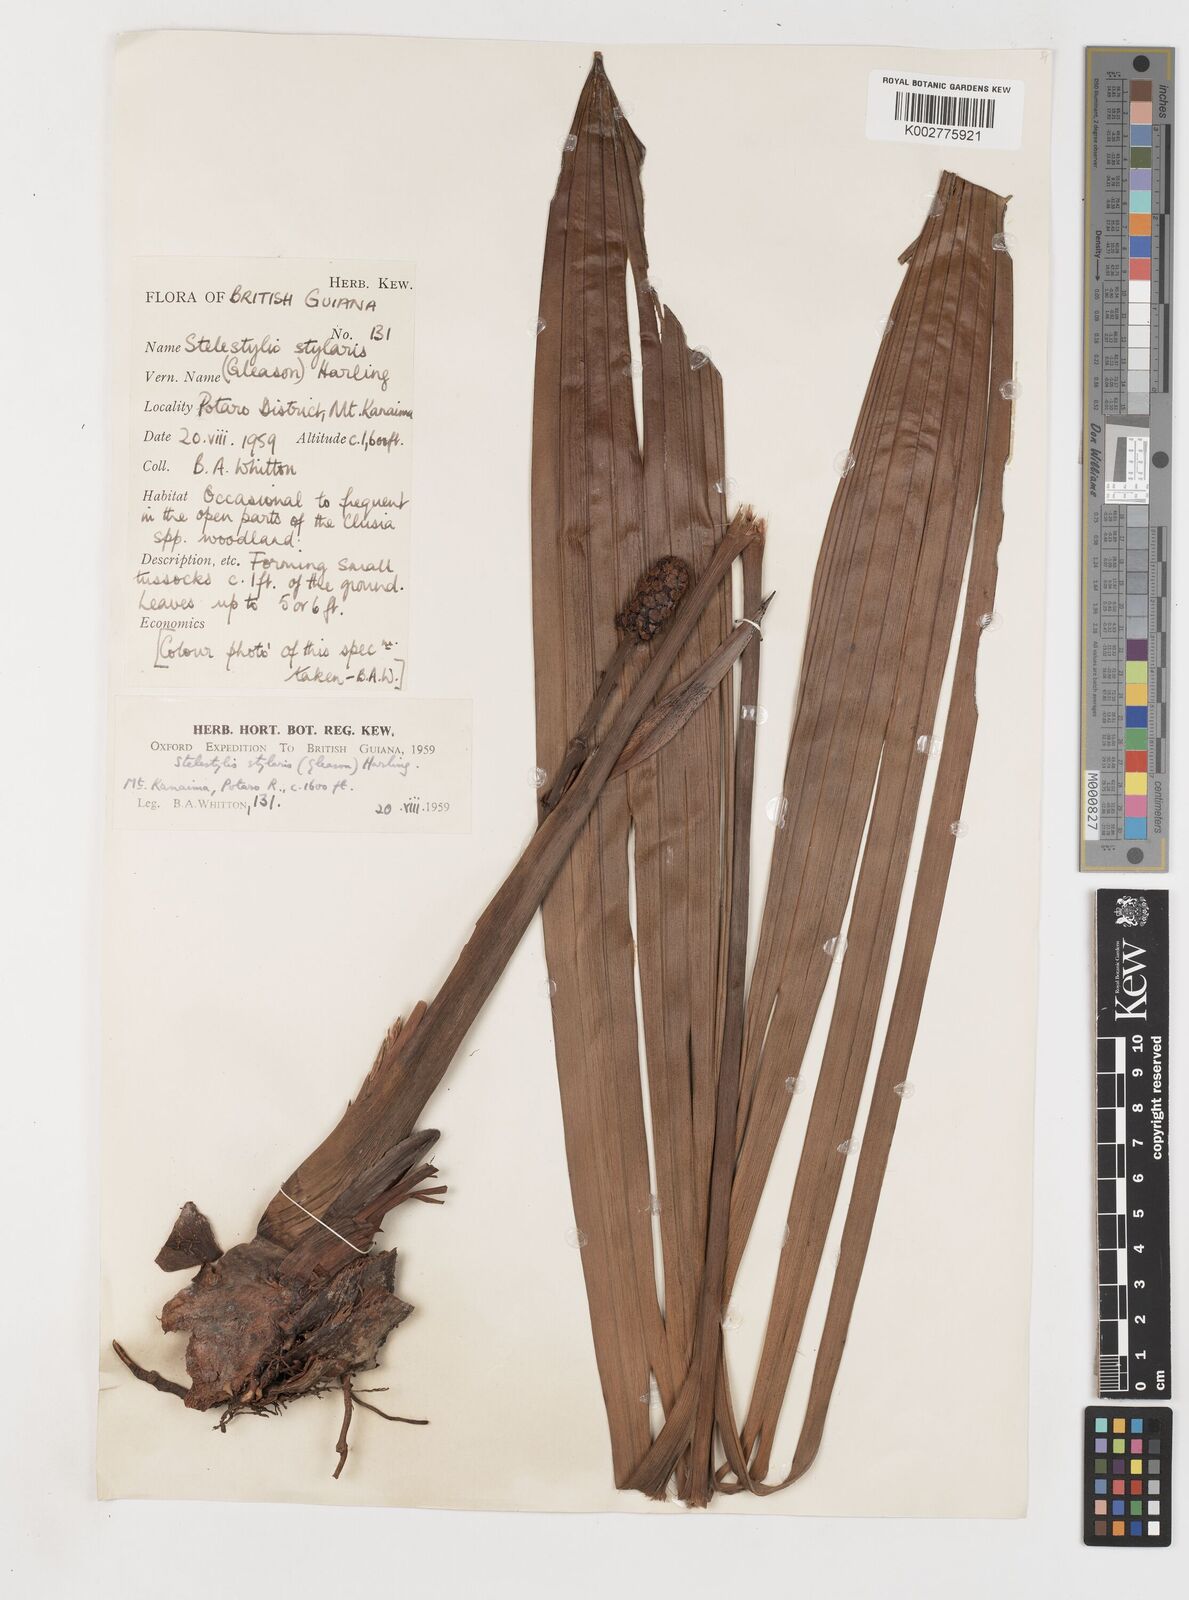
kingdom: Plantae
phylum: Tracheophyta
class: Liliopsida
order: Pandanales
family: Cyclanthaceae
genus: Stelestylis
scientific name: Stelestylis stylaris
